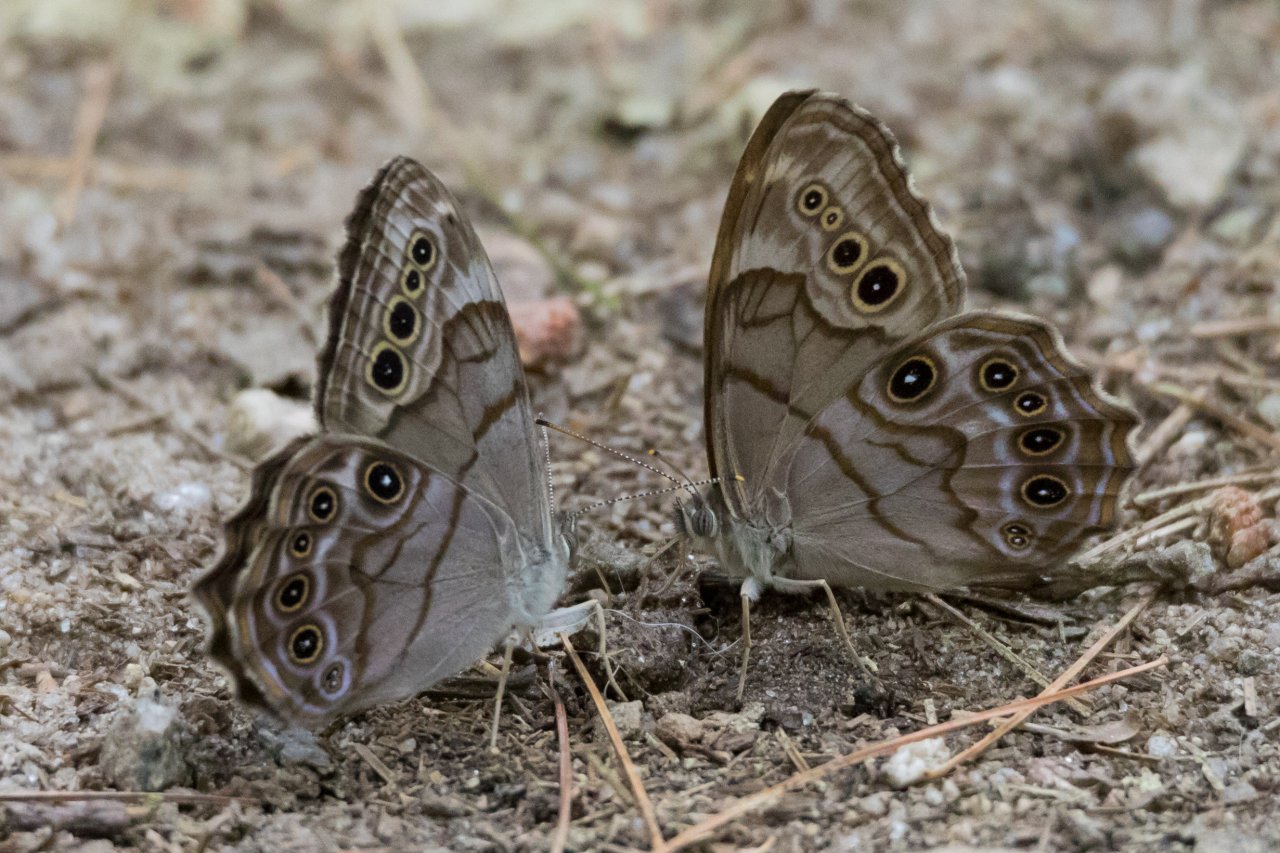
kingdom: Animalia
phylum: Arthropoda
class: Insecta
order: Lepidoptera
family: Nymphalidae
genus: Lethe
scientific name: Lethe anthedon
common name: Northern Pearly-Eye
